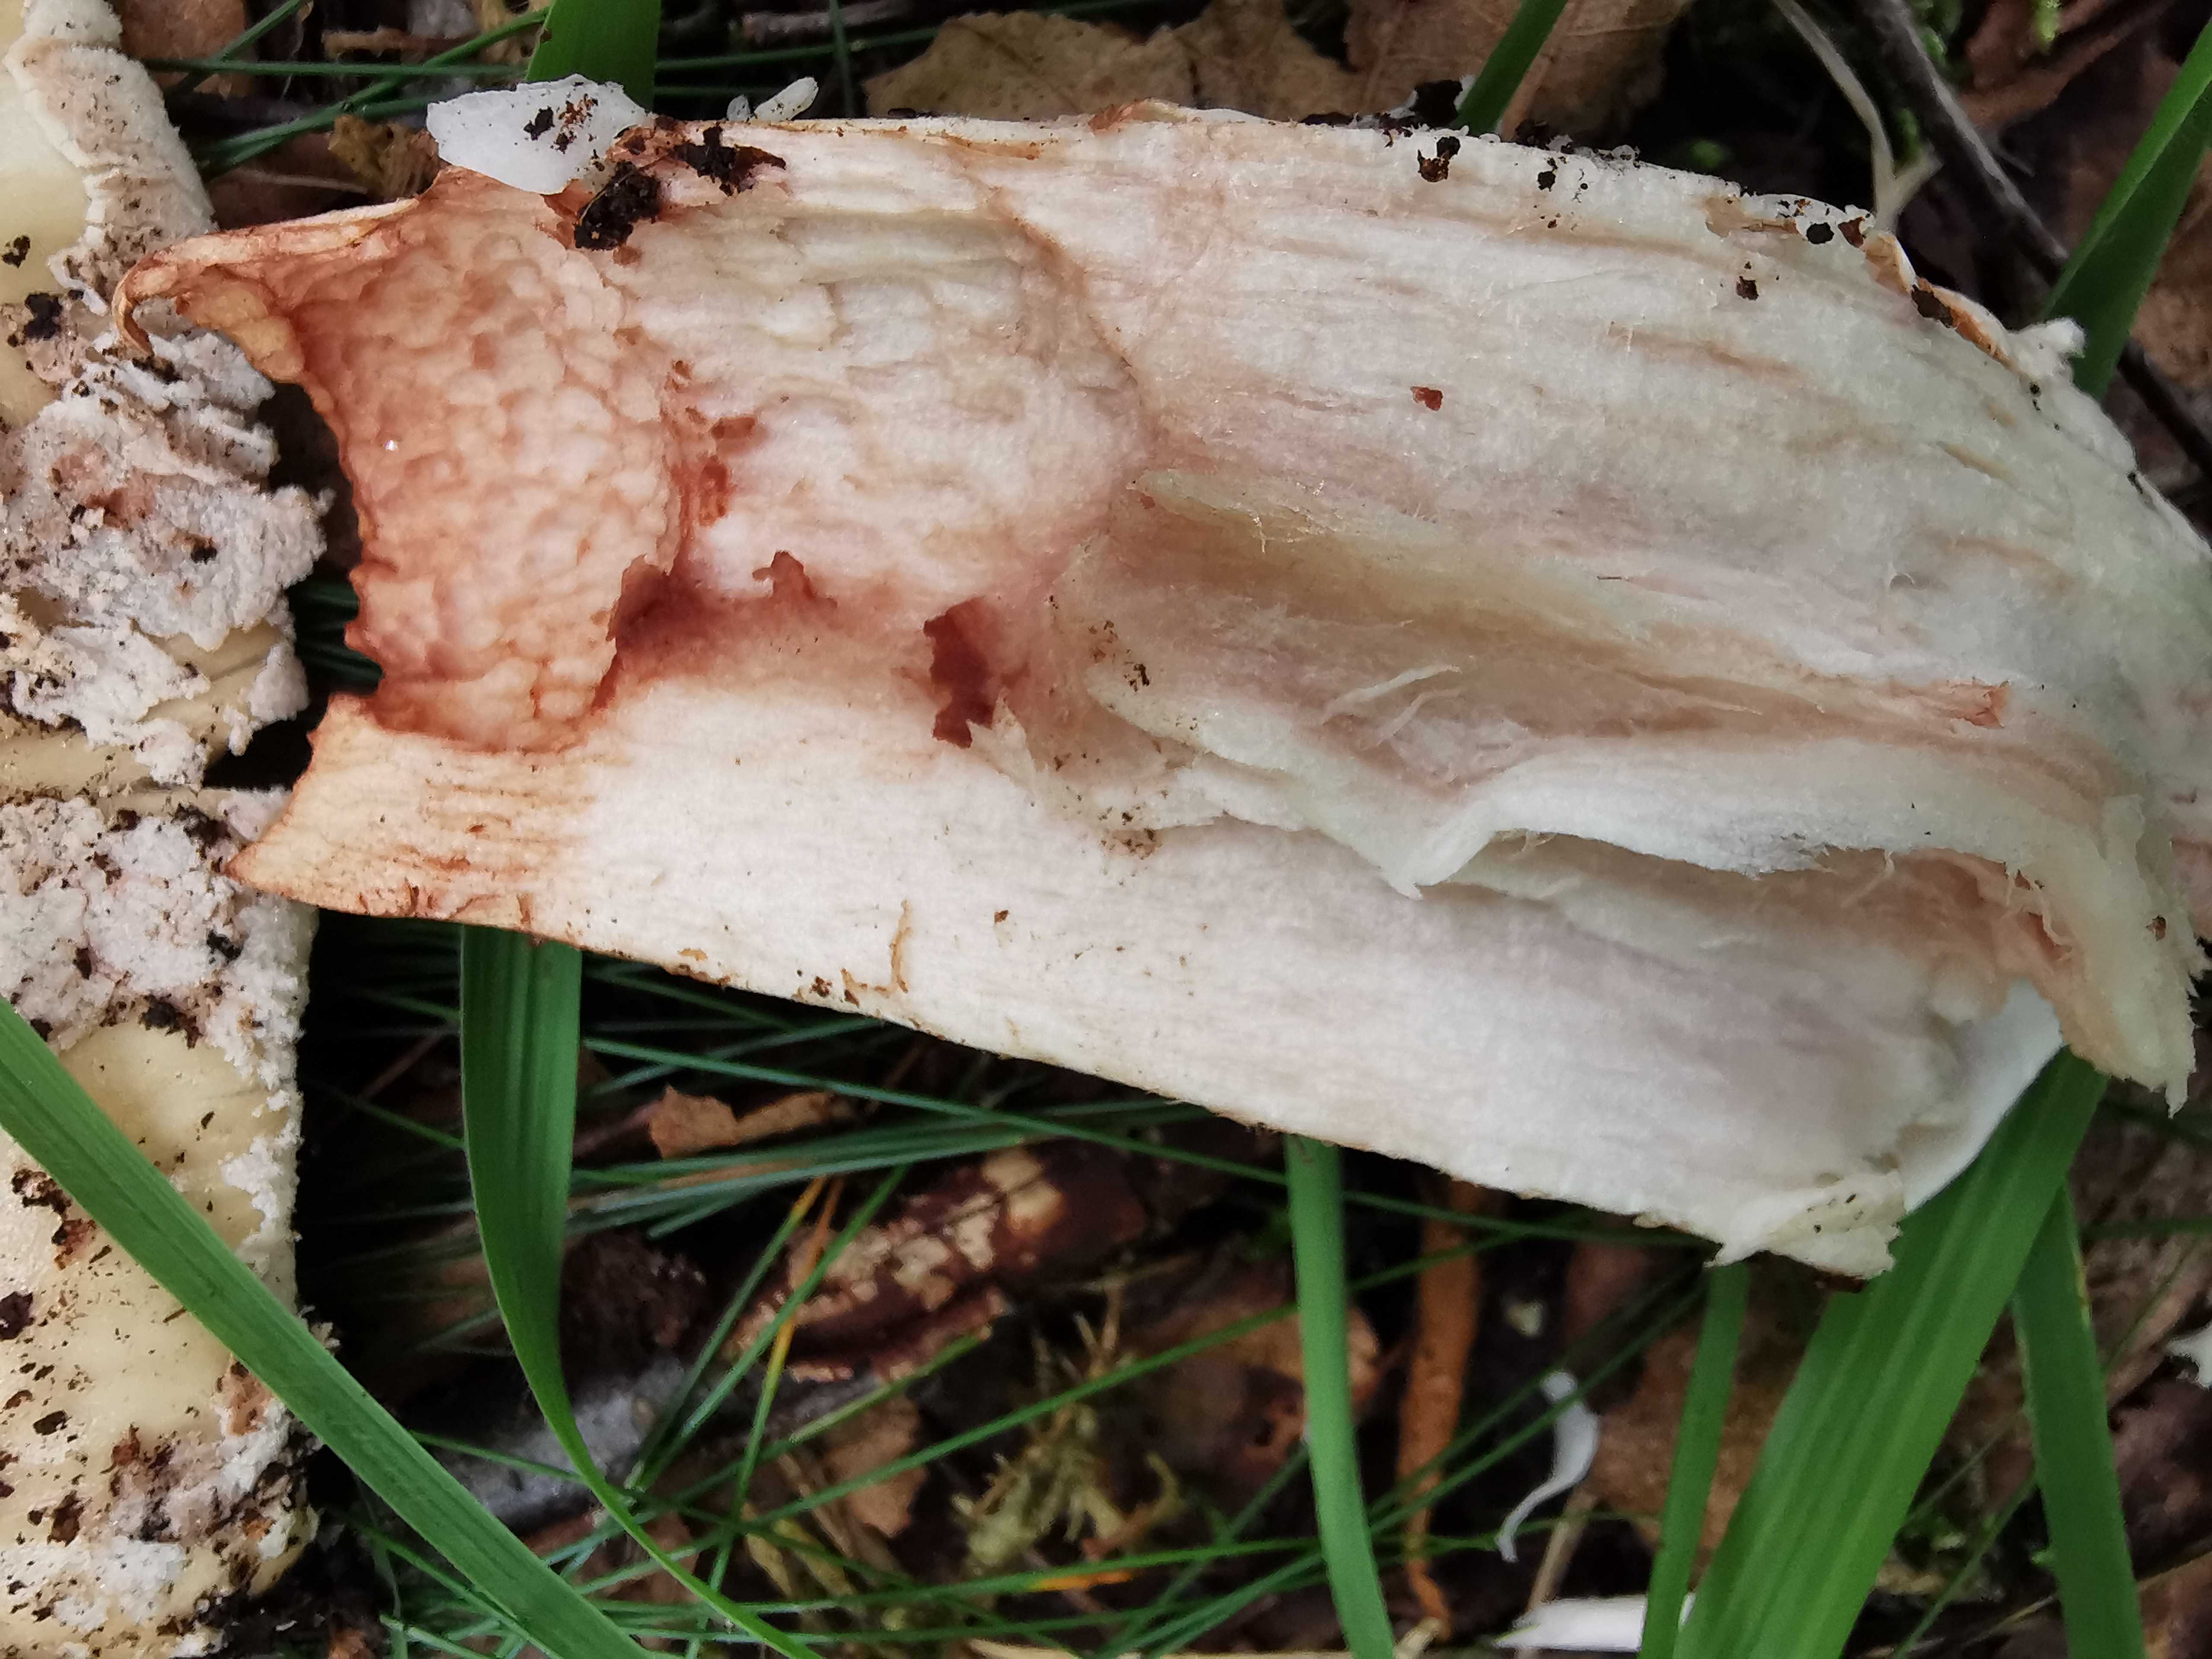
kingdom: Fungi
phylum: Basidiomycota
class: Agaricomycetes
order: Agaricales
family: Amanitaceae
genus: Amanita
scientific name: Amanita rubescens
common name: rødmende fluesvamp
